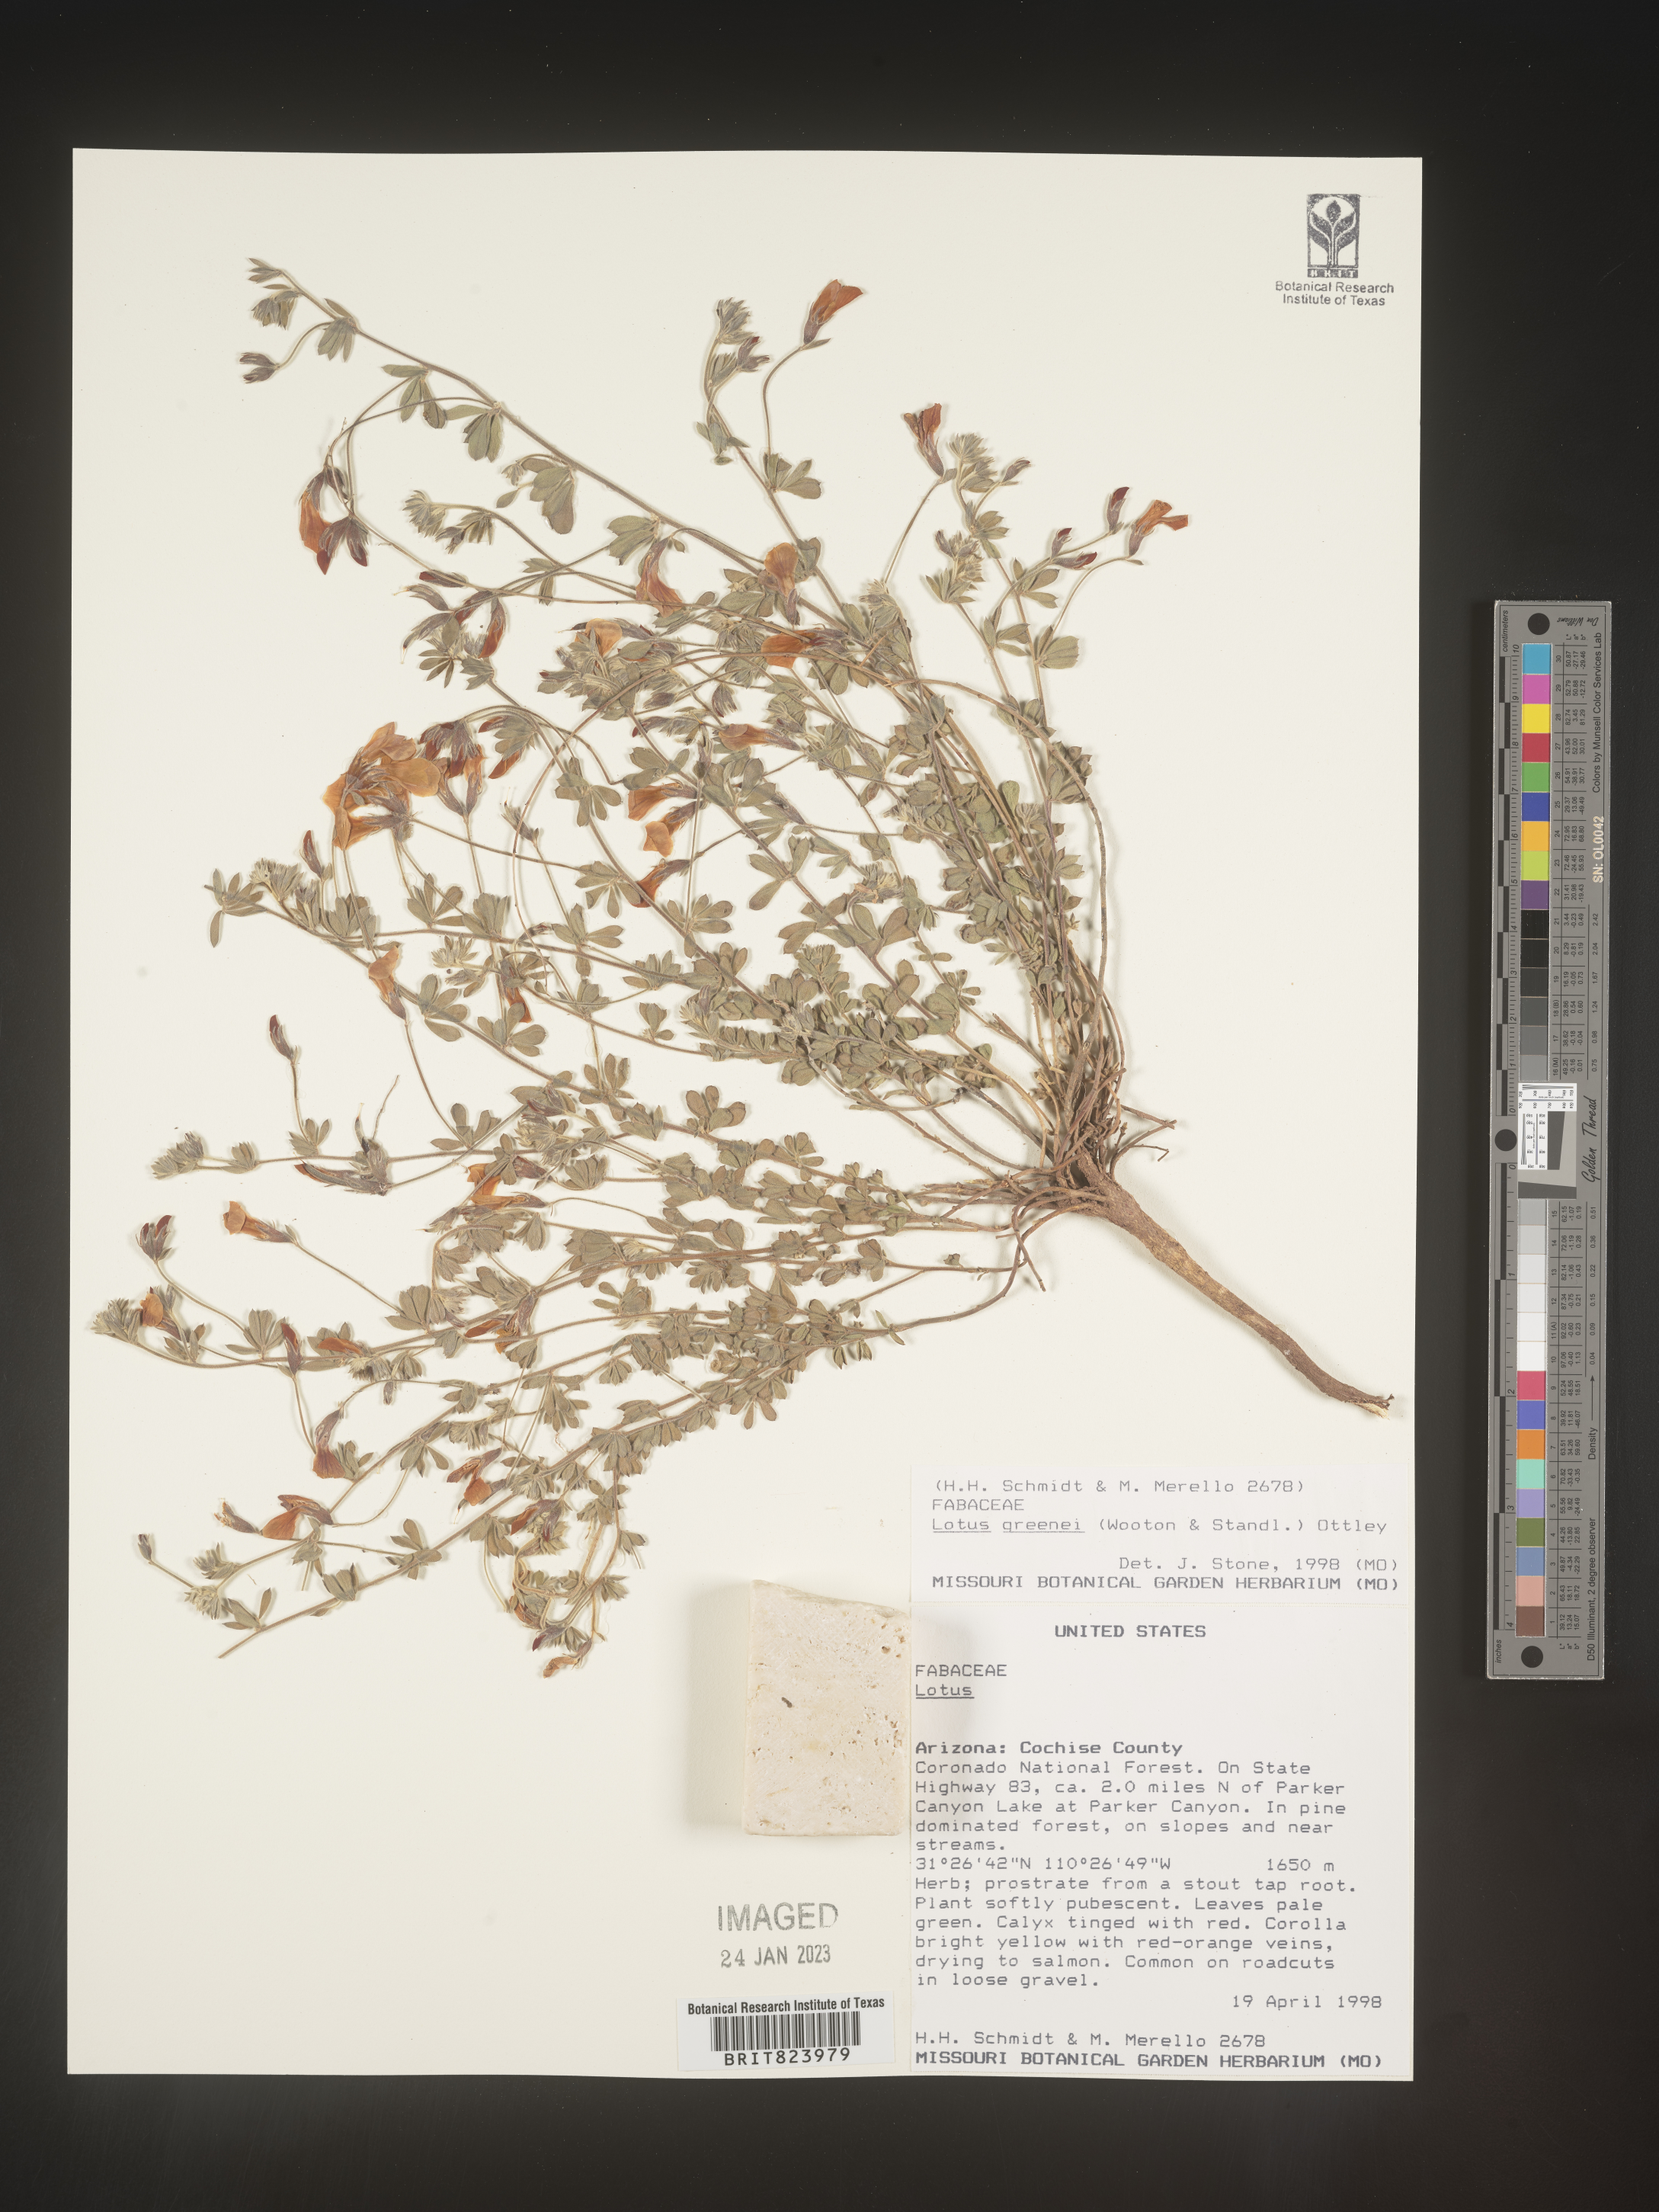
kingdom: Plantae
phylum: Tracheophyta
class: Magnoliopsida
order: Fabales
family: Fabaceae
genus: Lotus
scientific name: Lotus
